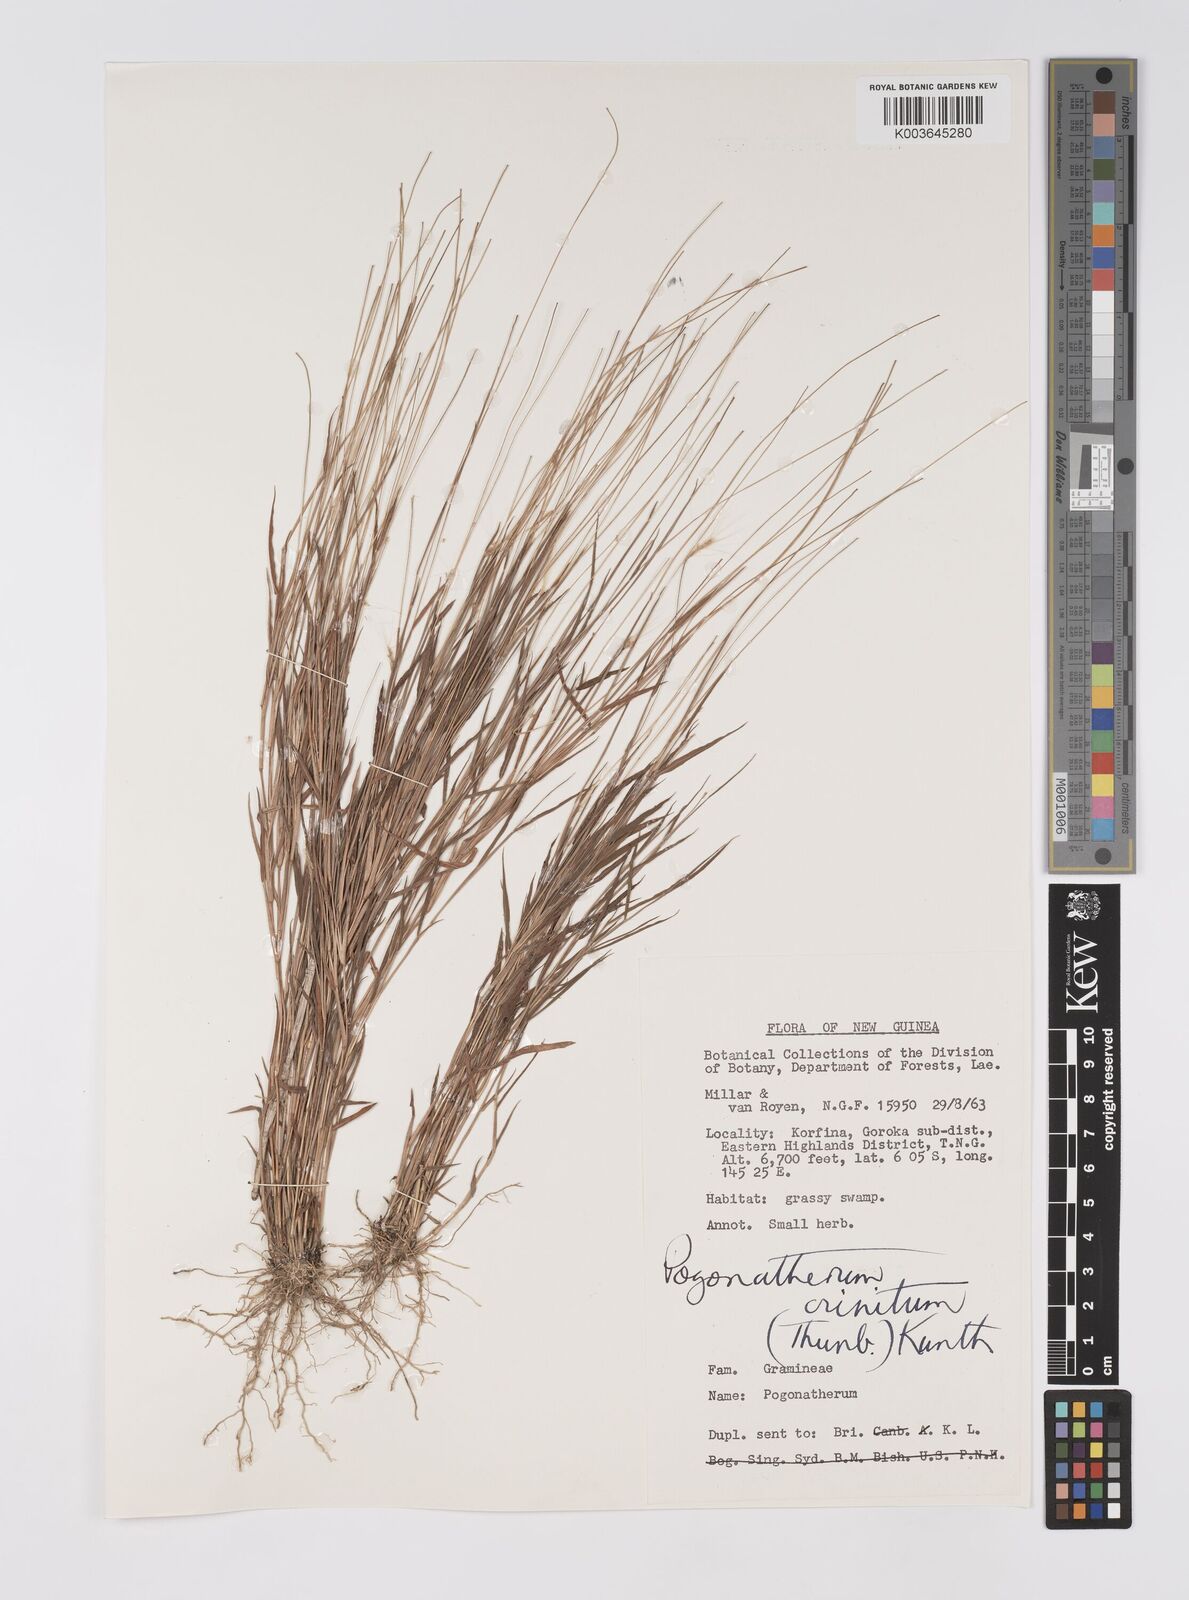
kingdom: Plantae
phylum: Tracheophyta
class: Liliopsida
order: Poales
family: Poaceae
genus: Pogonatherum
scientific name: Pogonatherum crinitum
